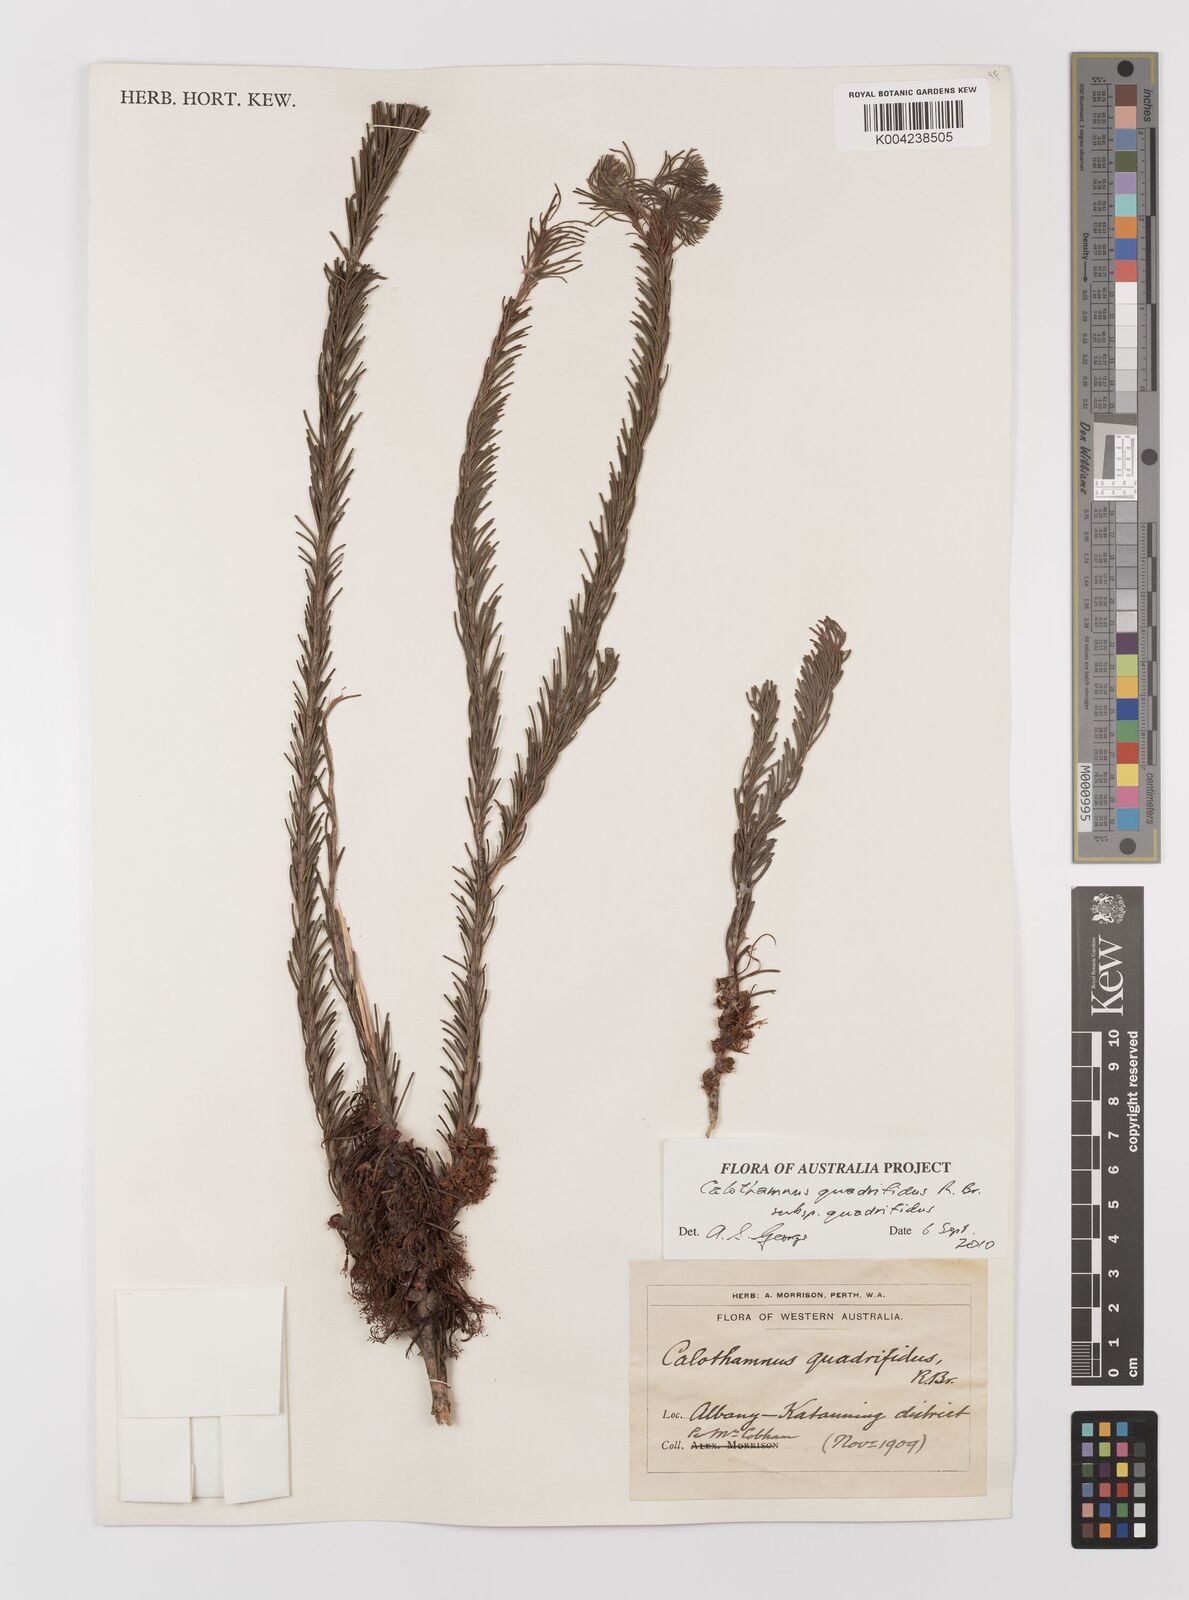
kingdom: Plantae
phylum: Tracheophyta
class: Magnoliopsida
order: Myrtales
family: Myrtaceae
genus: Melaleuca
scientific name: Melaleuca quadrifida
